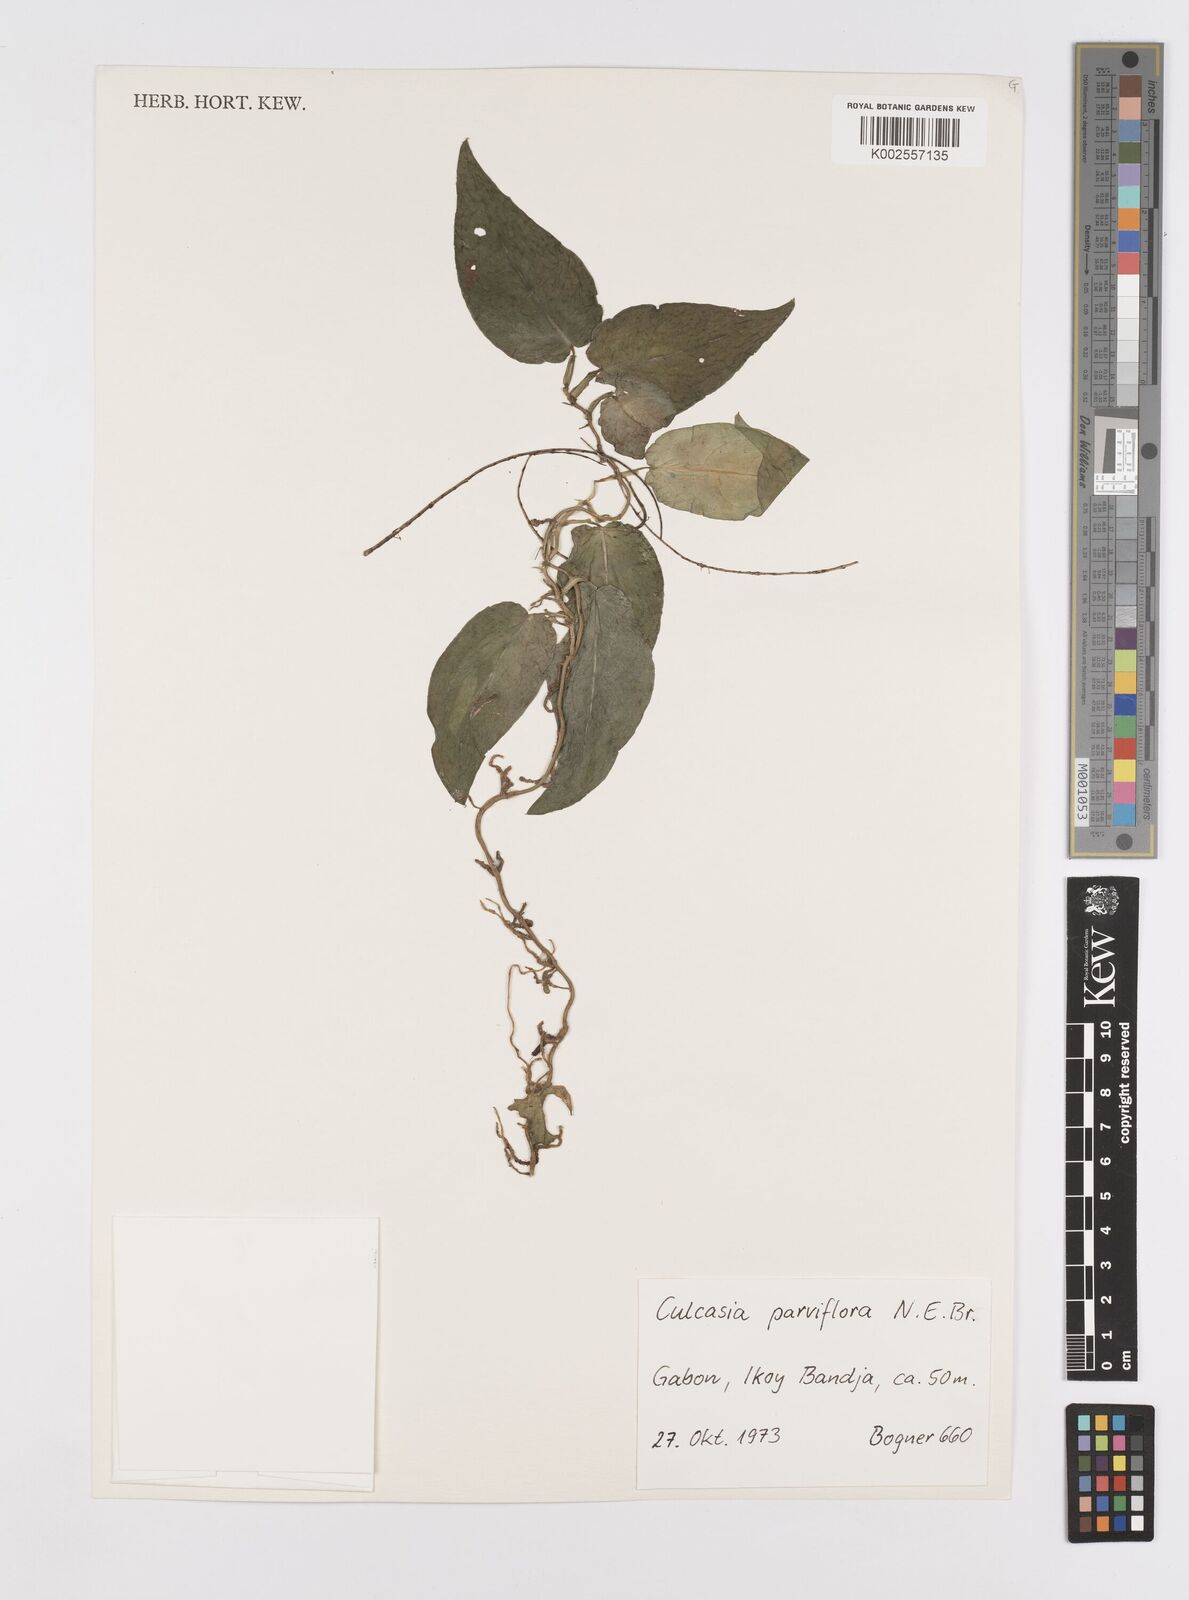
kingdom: Plantae
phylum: Tracheophyta
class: Liliopsida
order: Alismatales
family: Araceae
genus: Culcasia
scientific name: Culcasia parviflora
